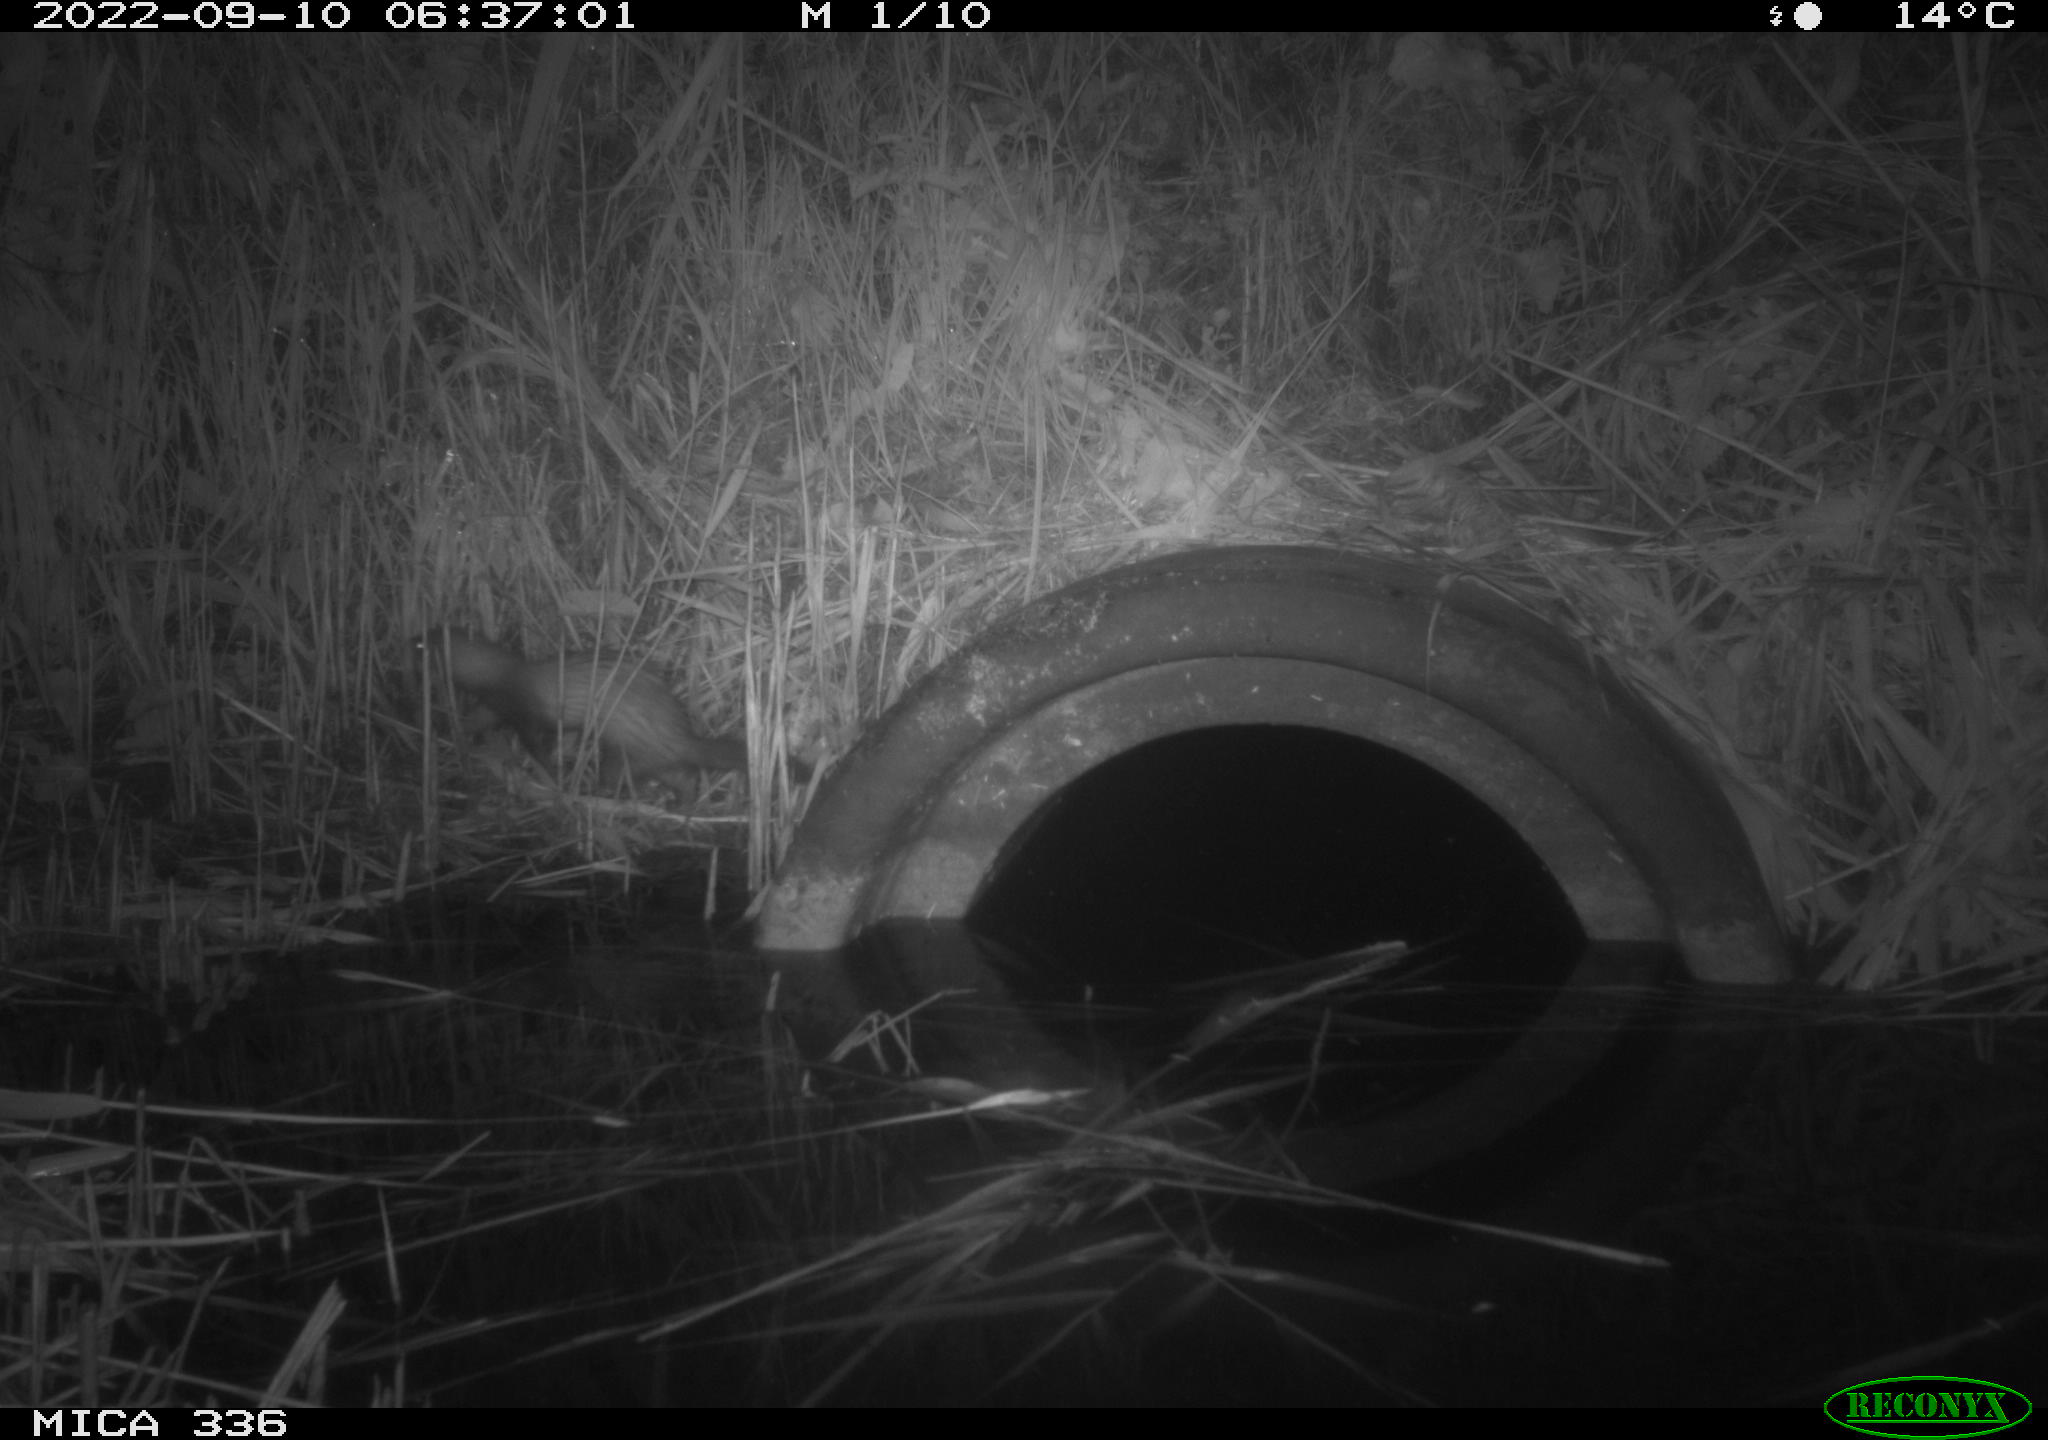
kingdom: Animalia
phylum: Chordata
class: Mammalia
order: Carnivora
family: Mustelidae
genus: Mustela
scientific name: Mustela putorius
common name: European polecat
